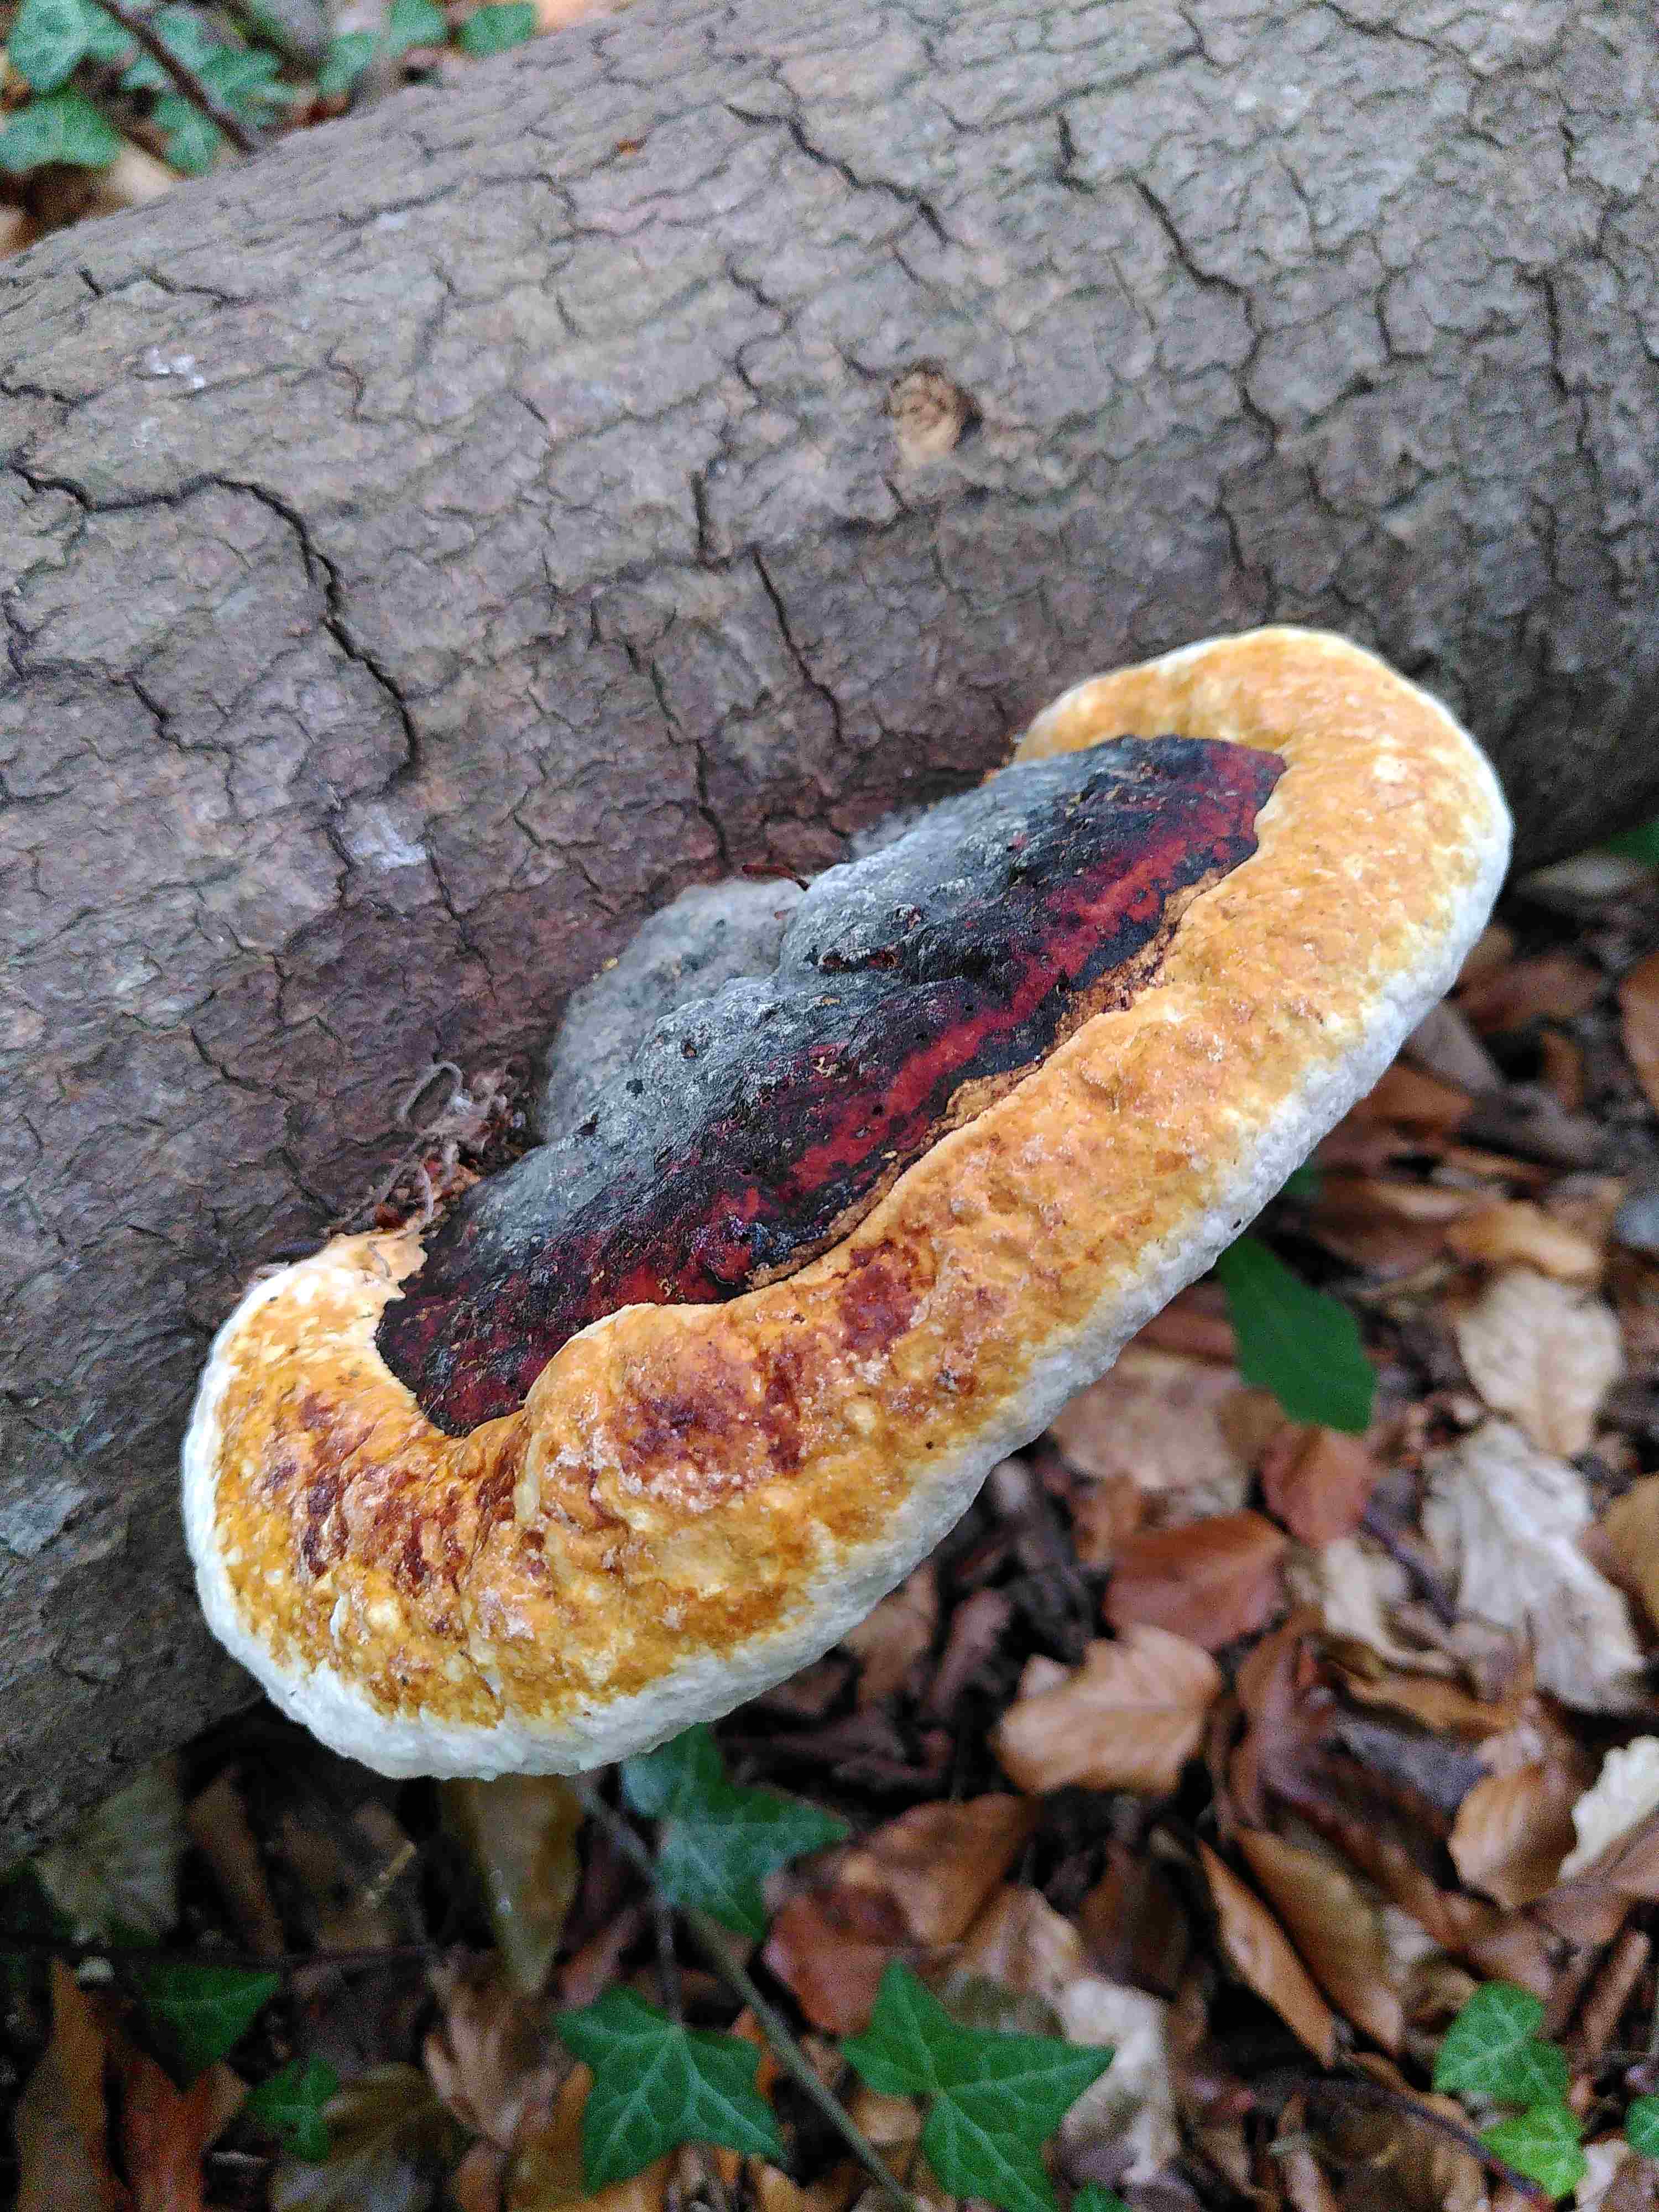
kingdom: Fungi
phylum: Basidiomycota
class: Agaricomycetes
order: Polyporales
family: Fomitopsidaceae
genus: Fomitopsis
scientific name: Fomitopsis pinicola
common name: randbæltet hovporesvamp
